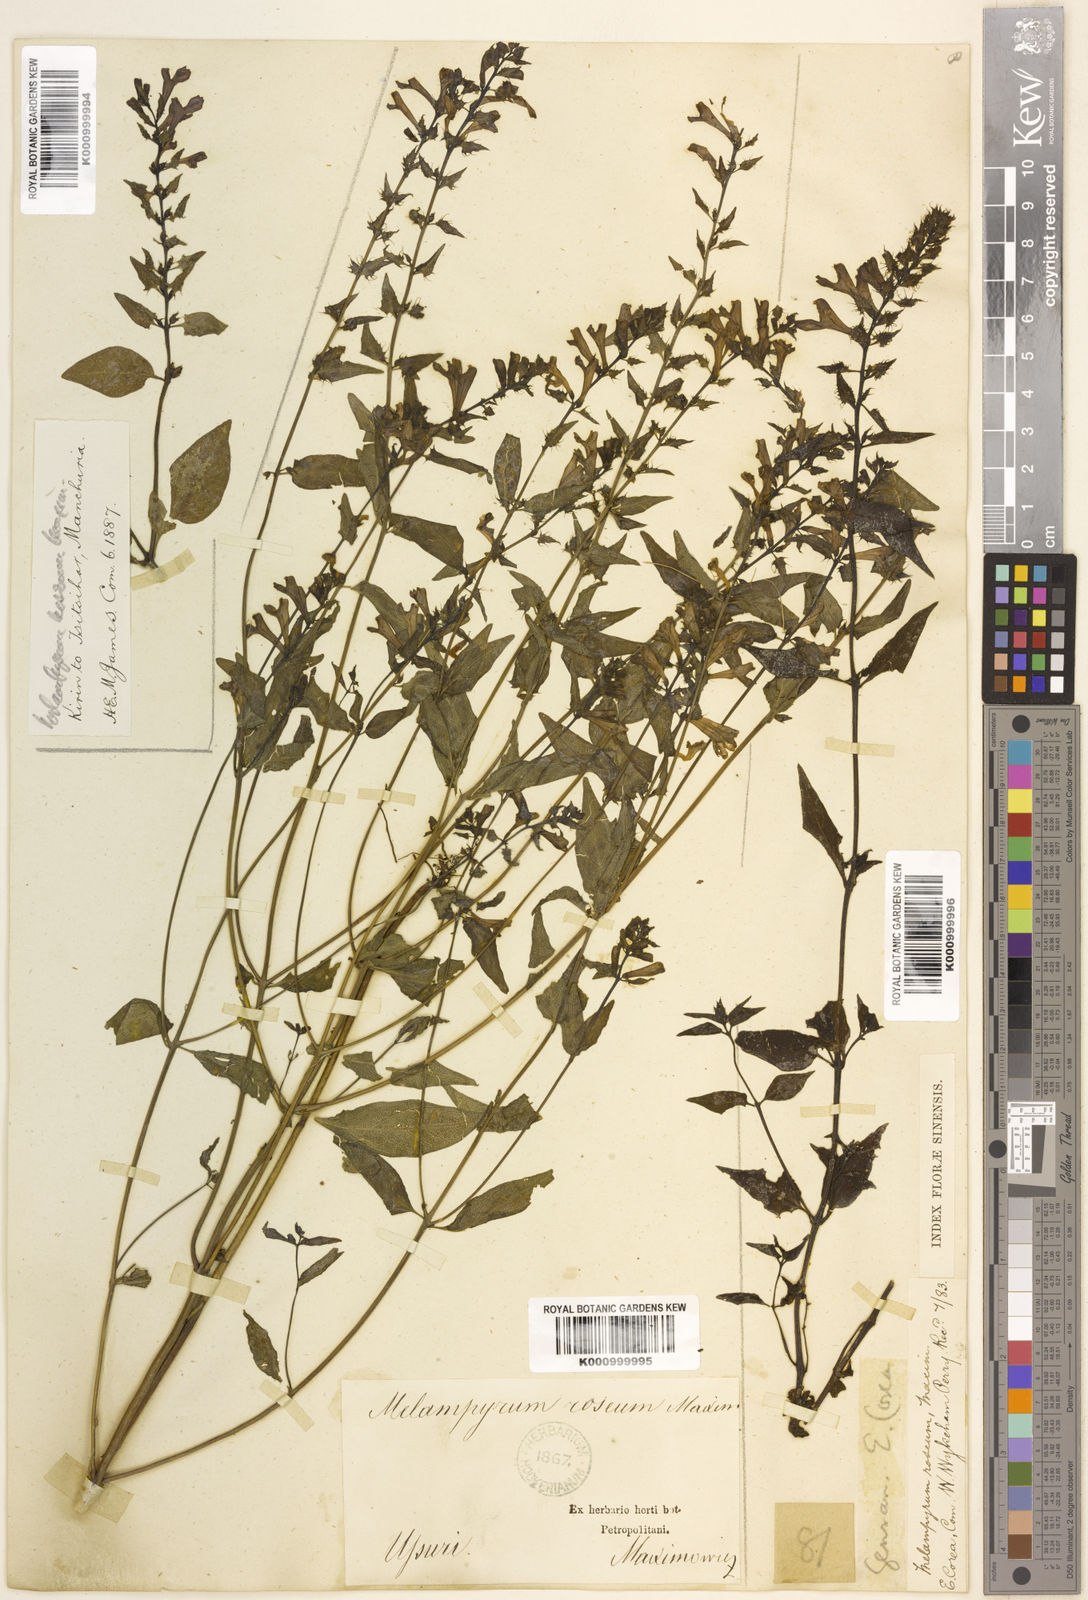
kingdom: Plantae
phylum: Tracheophyta
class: Magnoliopsida
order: Lamiales
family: Orobanchaceae
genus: Melampyrum
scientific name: Melampyrum roseum
